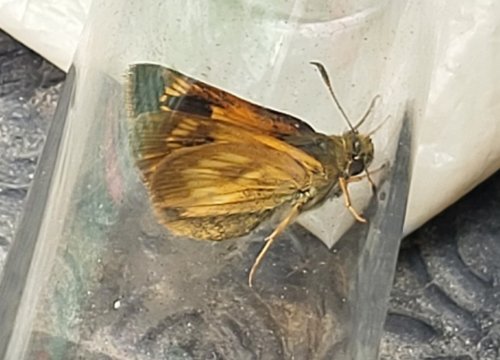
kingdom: Animalia
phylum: Arthropoda
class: Insecta
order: Lepidoptera
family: Hesperiidae
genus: Polites
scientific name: Polites
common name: Long Dash Skipper
